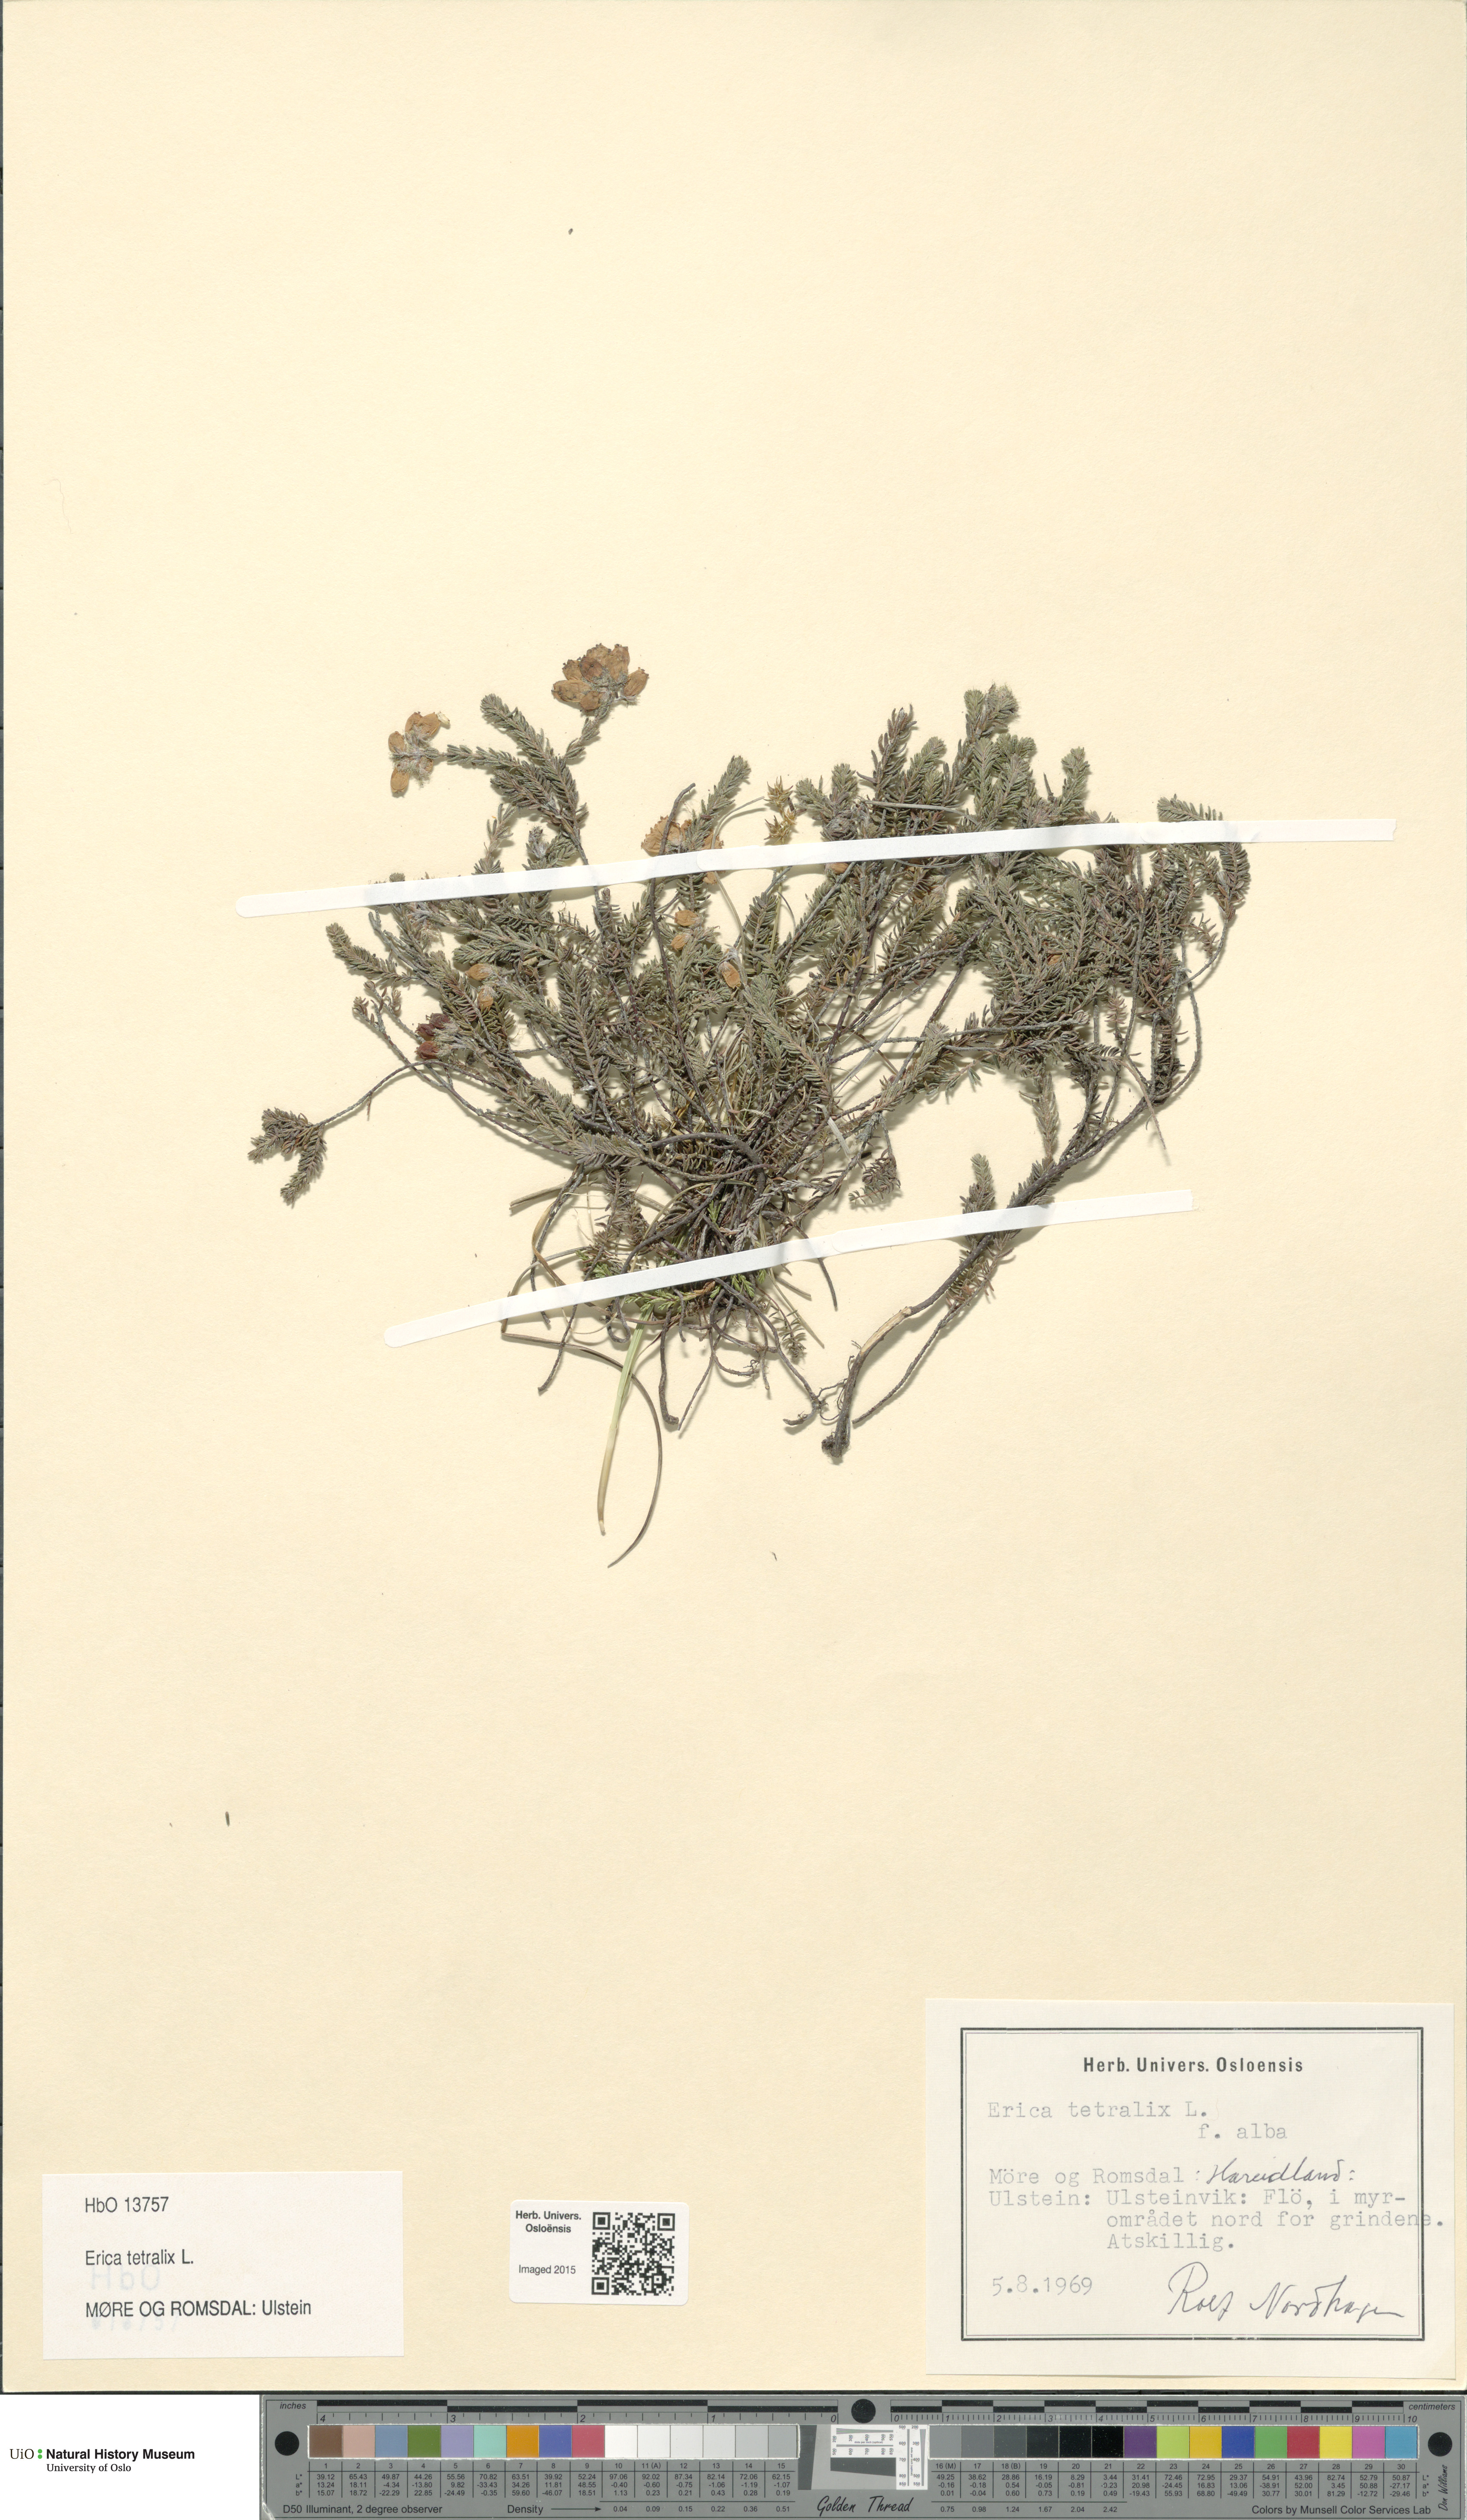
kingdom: Plantae
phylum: Tracheophyta
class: Magnoliopsida
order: Ericales
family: Ericaceae
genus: Erica
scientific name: Erica tetralix
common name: Cross-leaved heath
